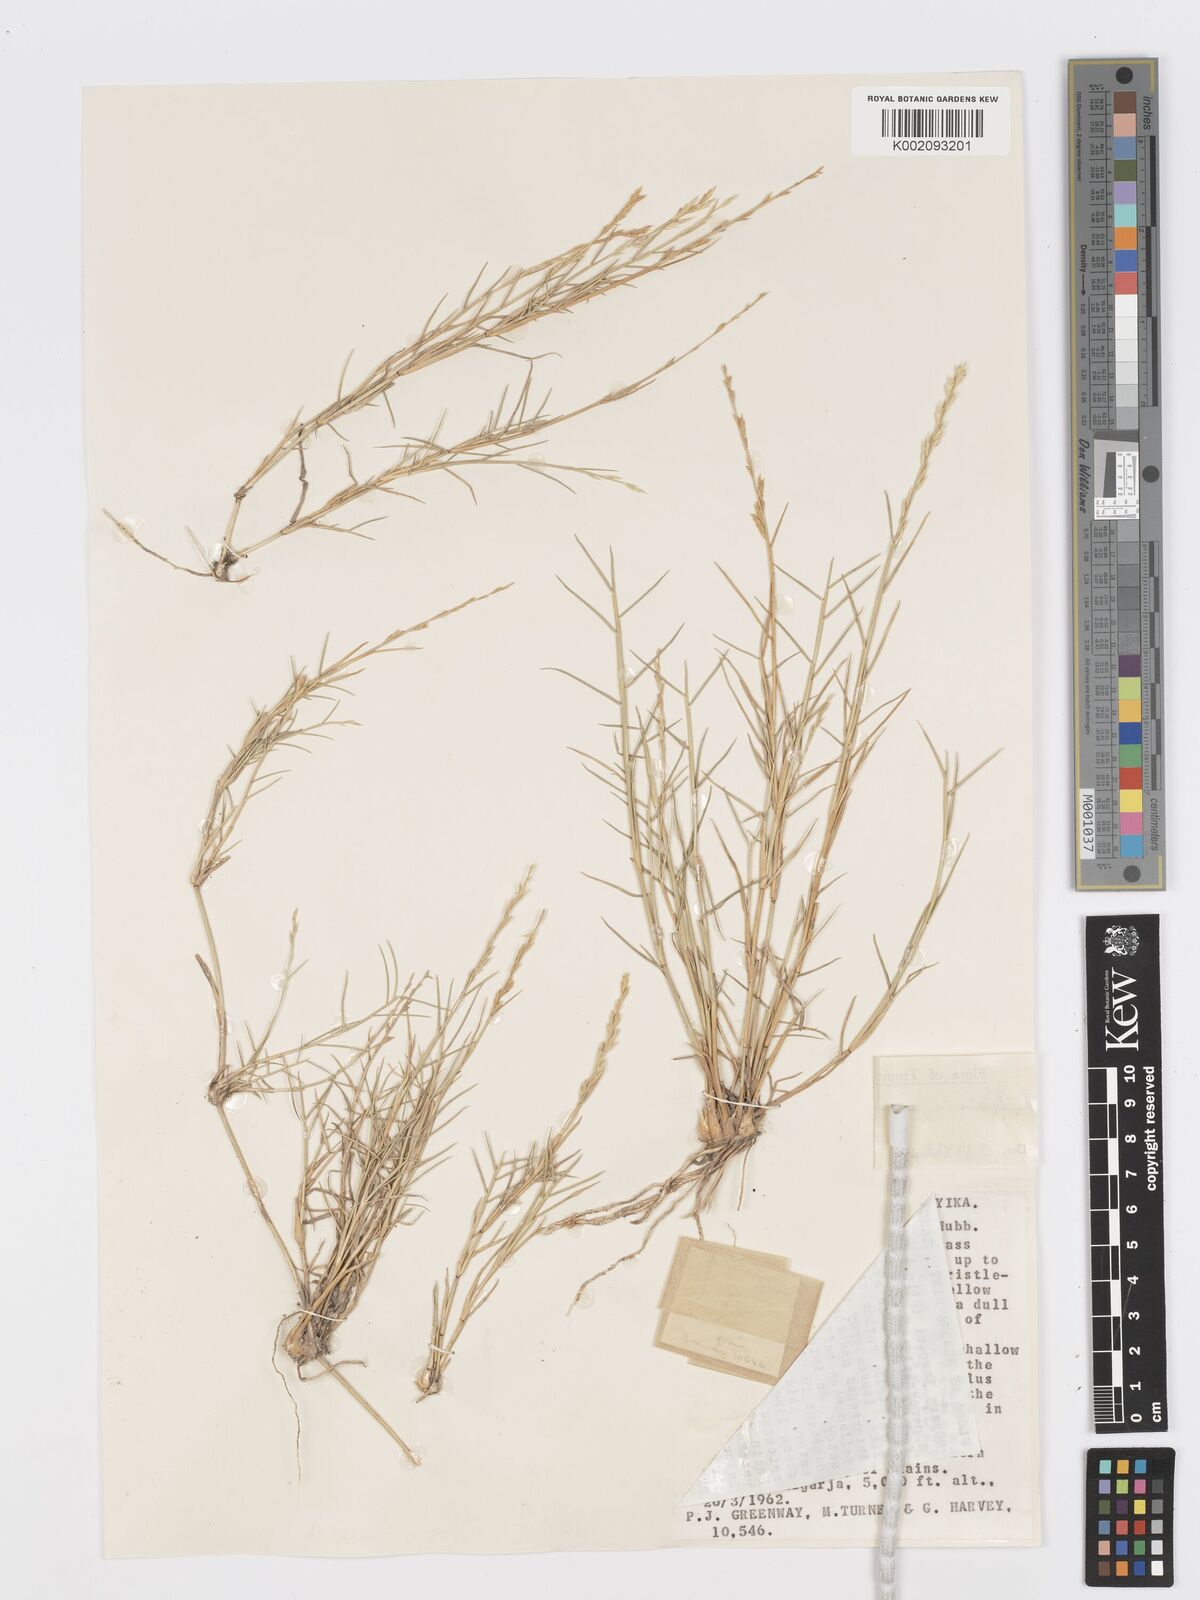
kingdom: Plantae
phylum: Tracheophyta
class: Liliopsida
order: Poales
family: Poaceae
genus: Psilolemma
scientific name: Psilolemma jaegeri
